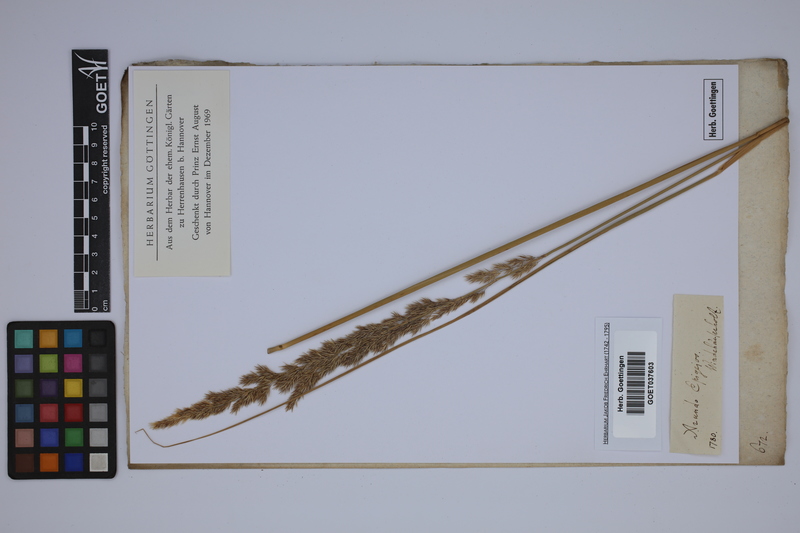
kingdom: Plantae
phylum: Tracheophyta
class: Liliopsida
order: Poales
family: Poaceae
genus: Calamagrostis
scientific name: Calamagrostis epigejos
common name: Wood small-reed
